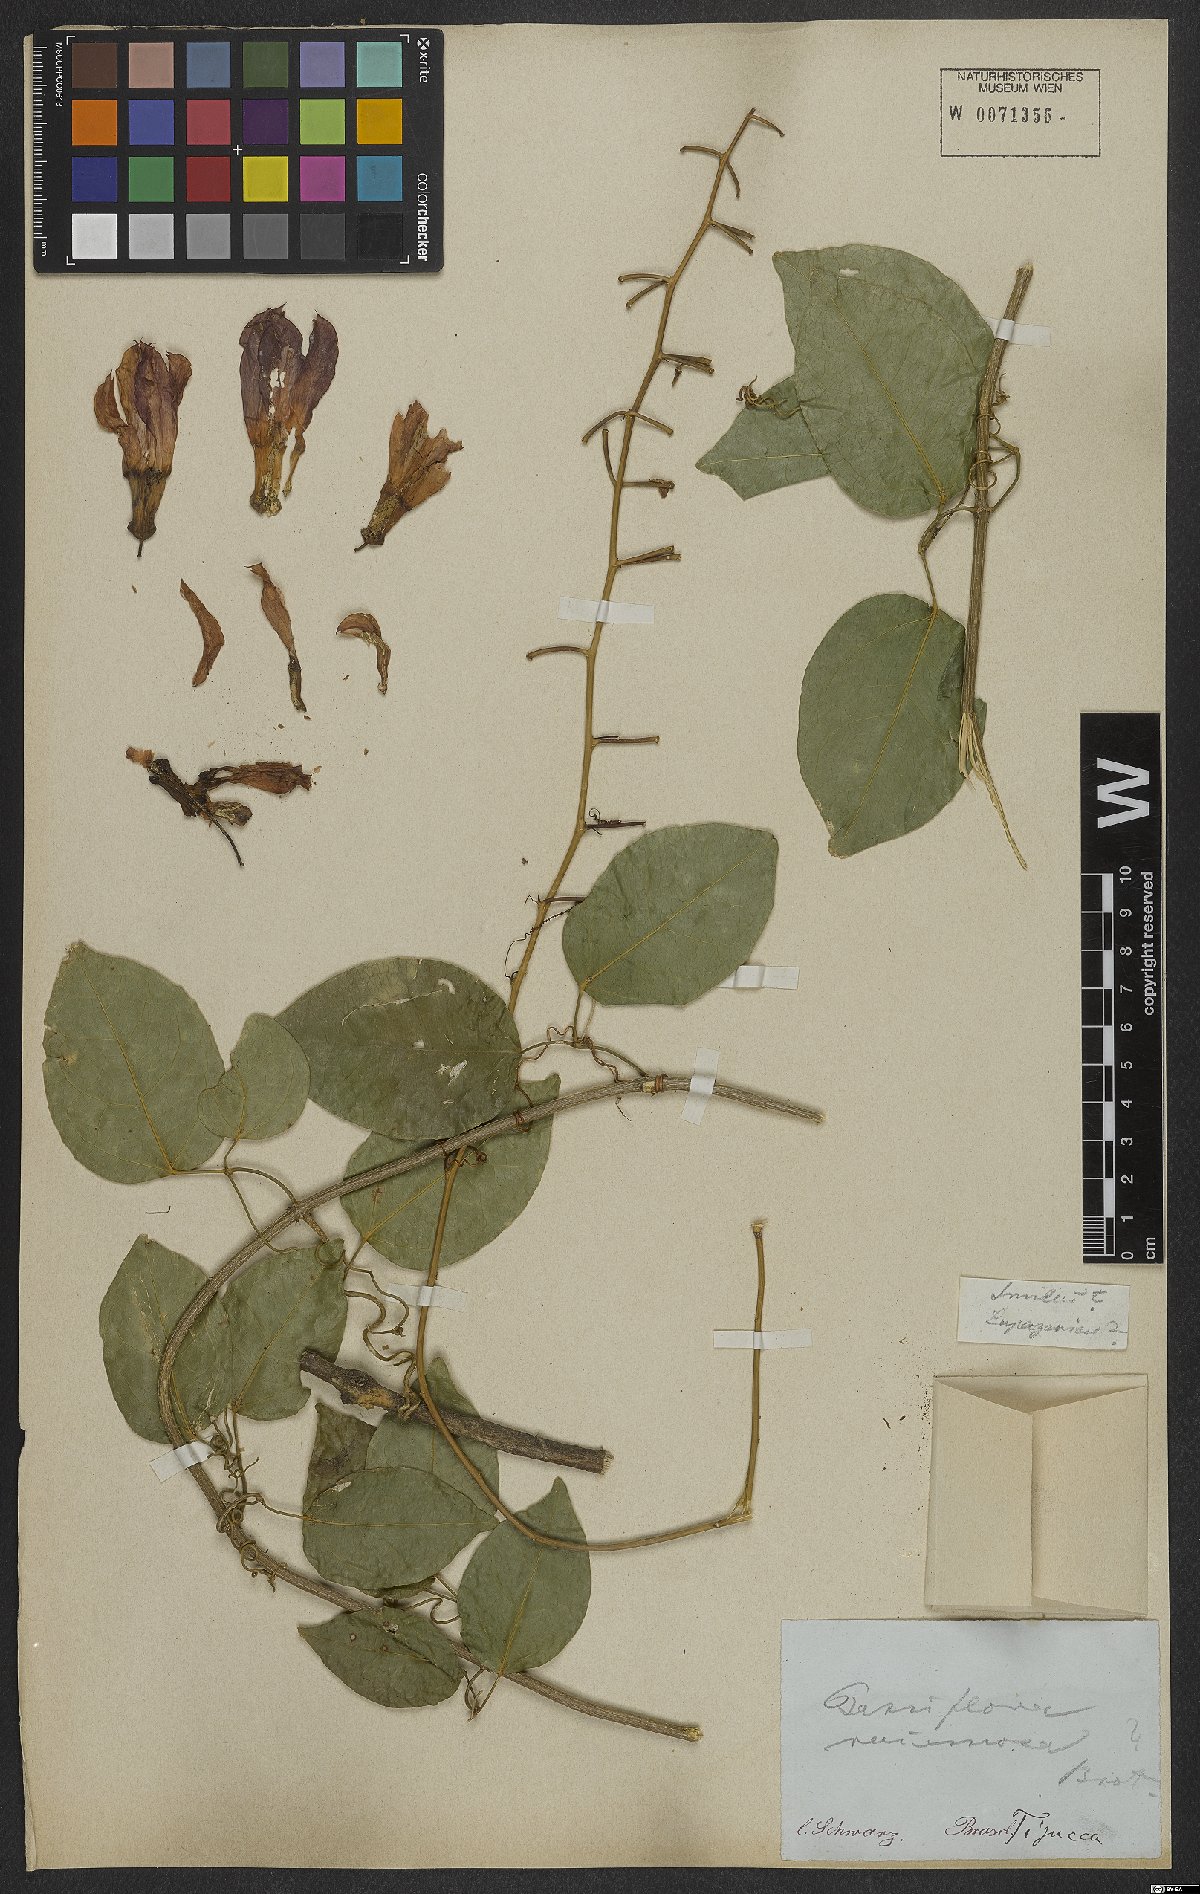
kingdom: Plantae
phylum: Tracheophyta
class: Magnoliopsida
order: Malpighiales
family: Passifloraceae
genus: Passiflora
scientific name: Passiflora racemosa
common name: Red passionflower
